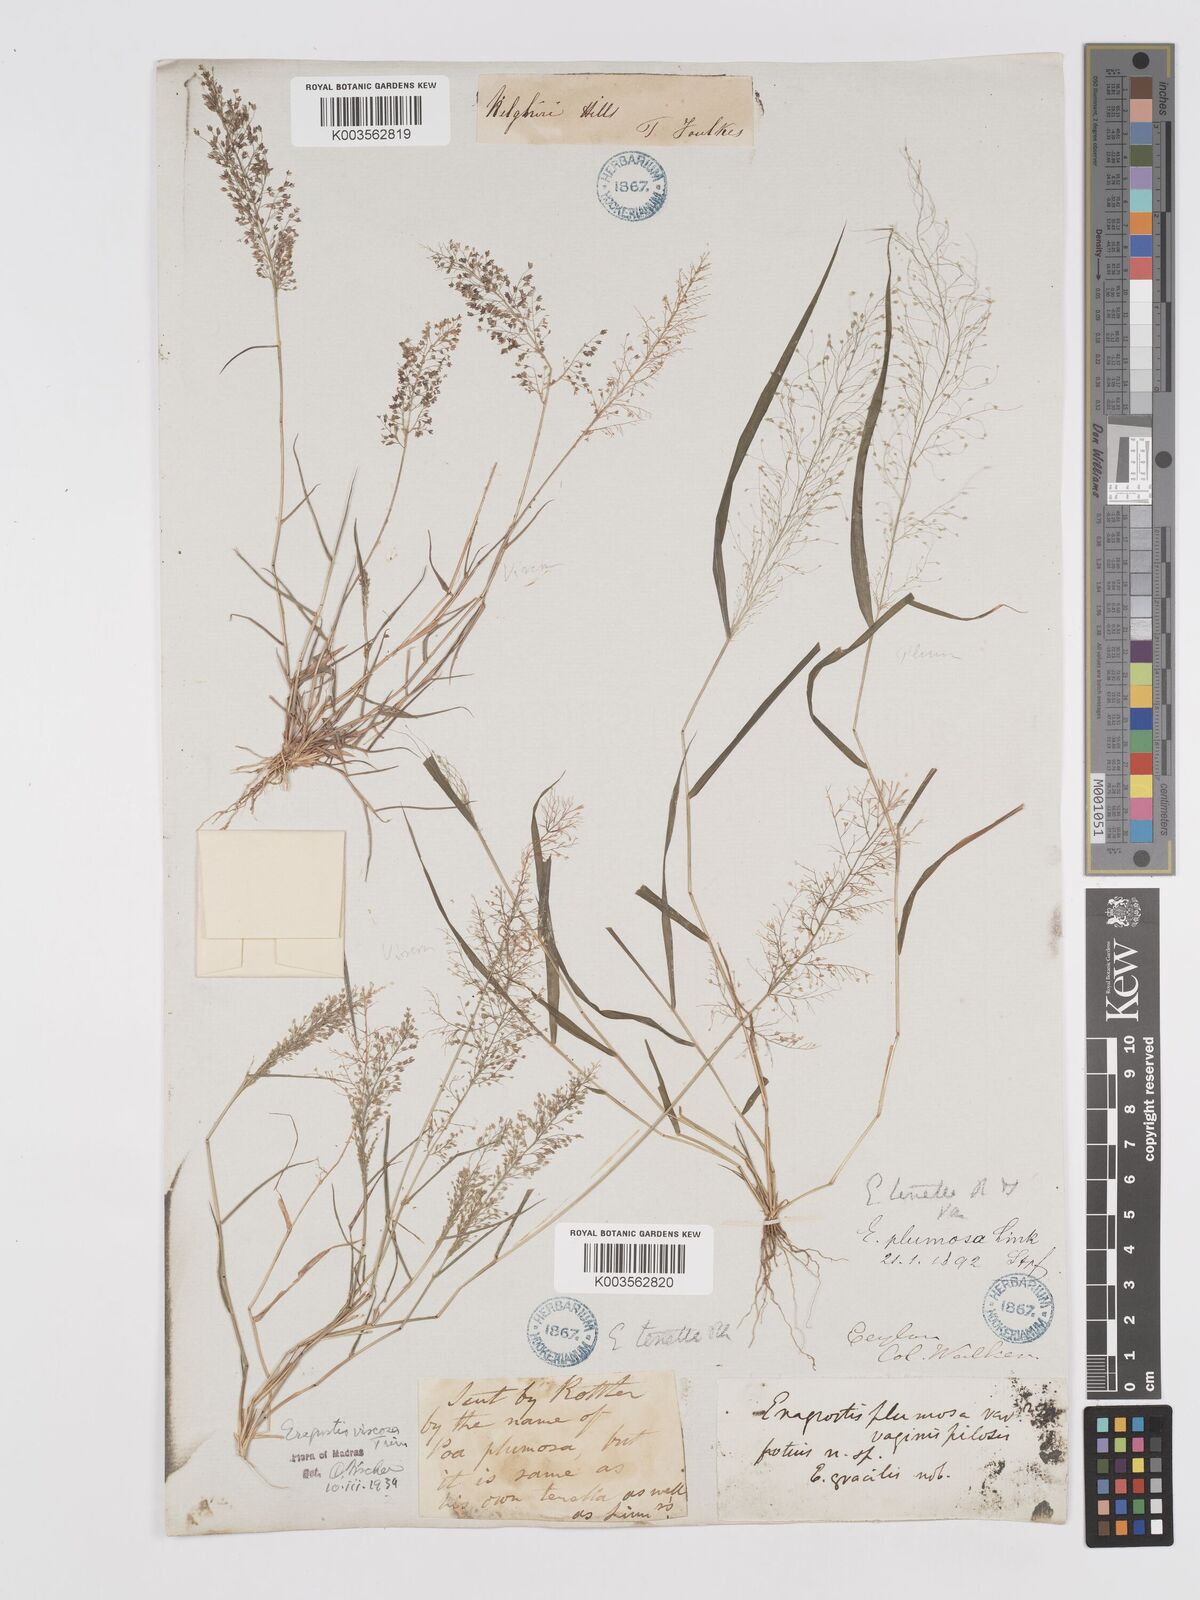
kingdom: Plantae
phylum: Tracheophyta
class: Liliopsida
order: Poales
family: Poaceae
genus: Eragrostis
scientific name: Eragrostis viscosa
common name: Sticky love grass
